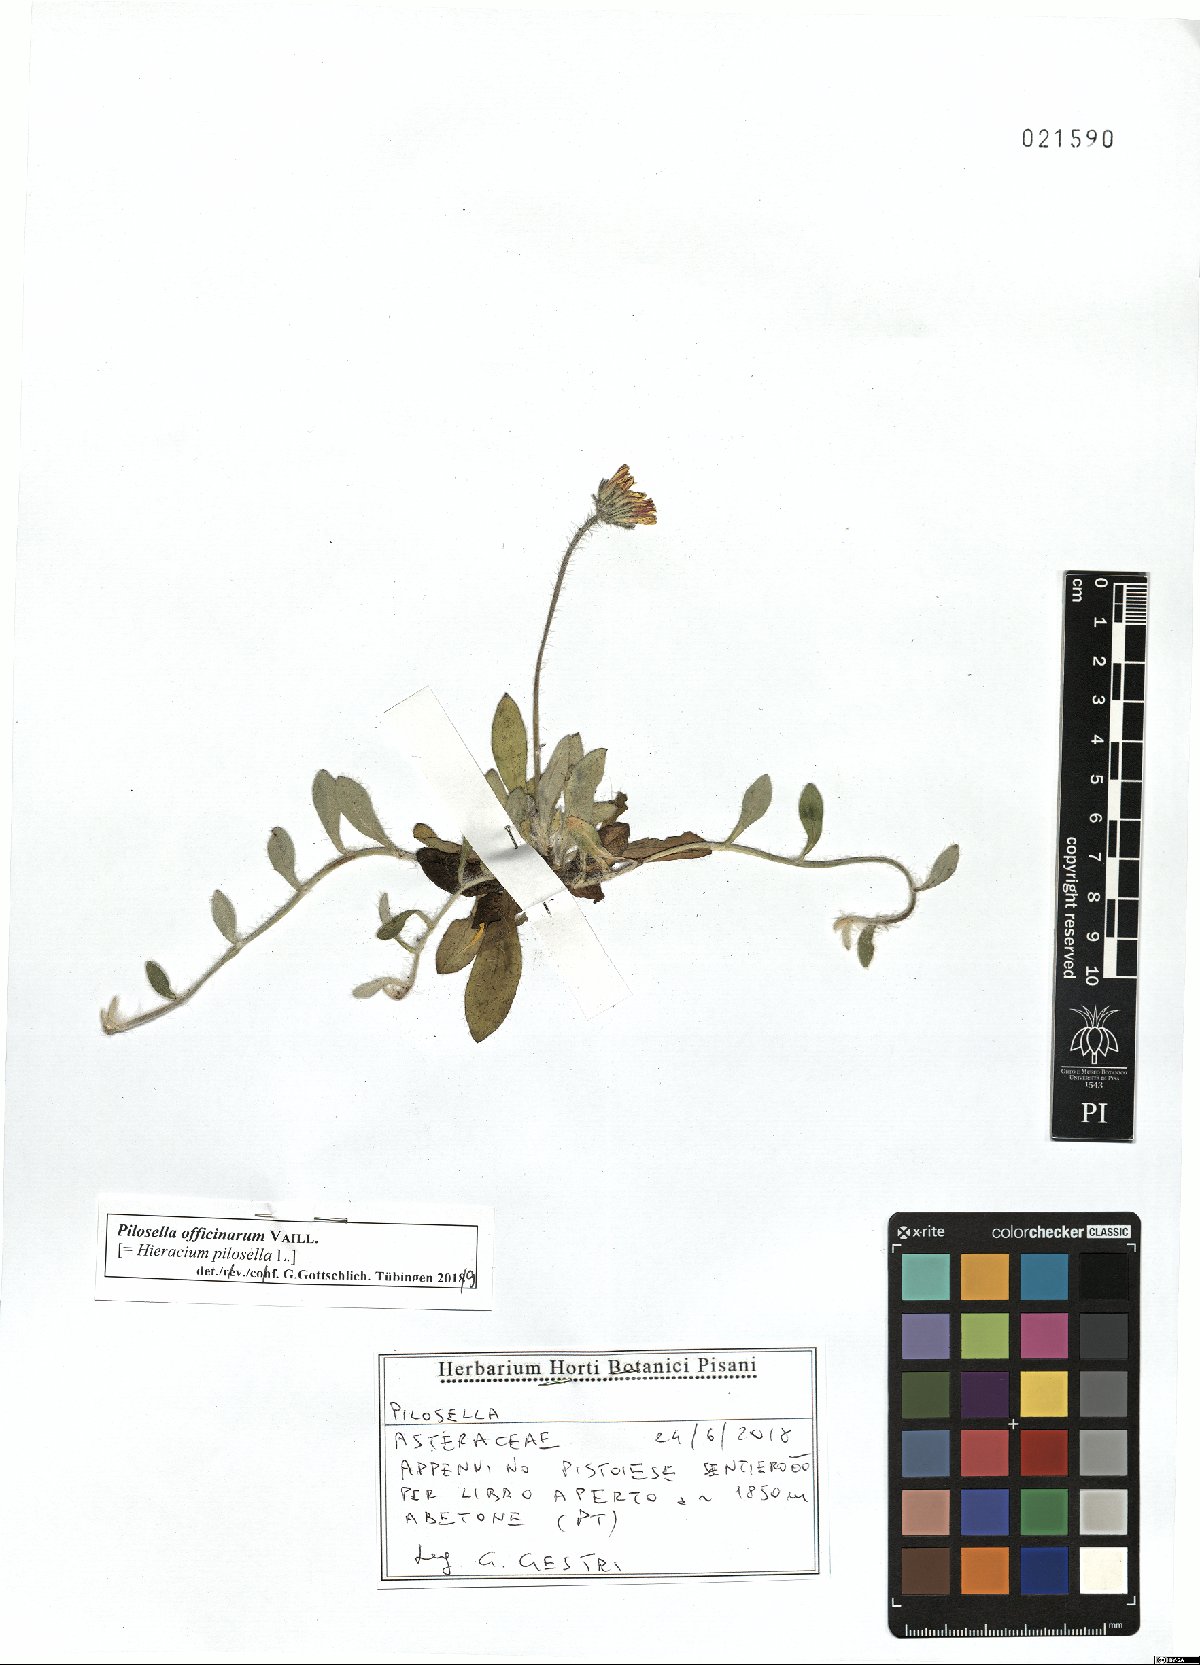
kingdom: Plantae
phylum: Tracheophyta
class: Magnoliopsida
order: Asterales
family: Asteraceae
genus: Pilosella
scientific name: Pilosella officinarum
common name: Mouse-ear hawkweed
